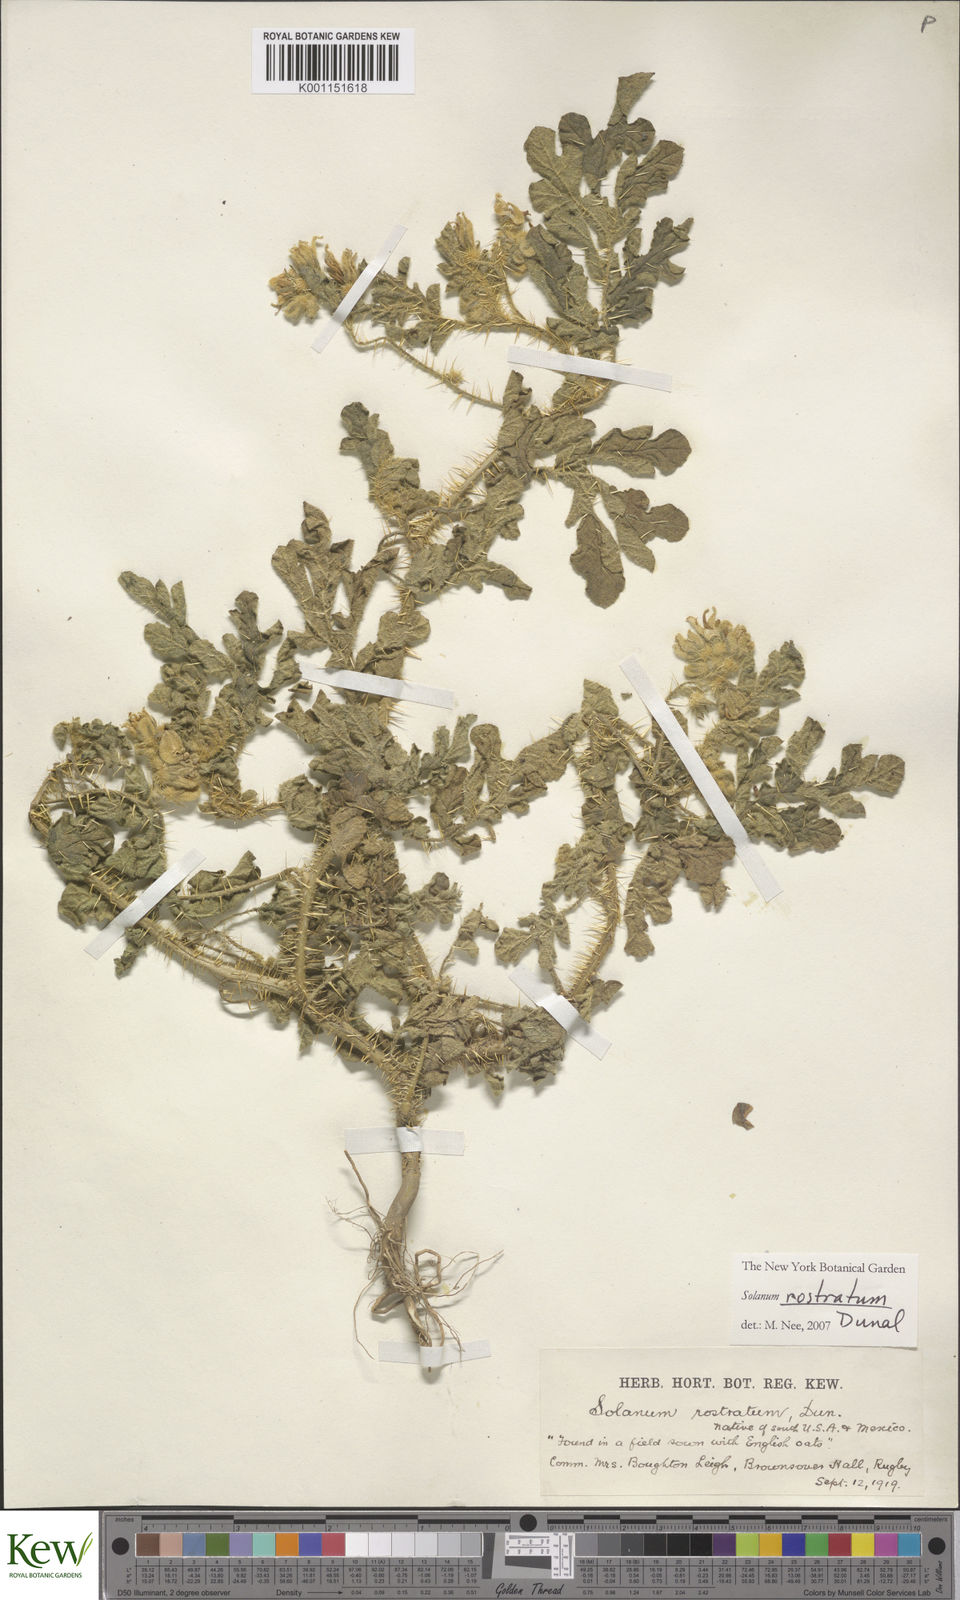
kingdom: Plantae
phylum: Tracheophyta
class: Magnoliopsida
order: Solanales
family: Solanaceae
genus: Solanum
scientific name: Solanum angustifolium
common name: Buffalobur nightshade
